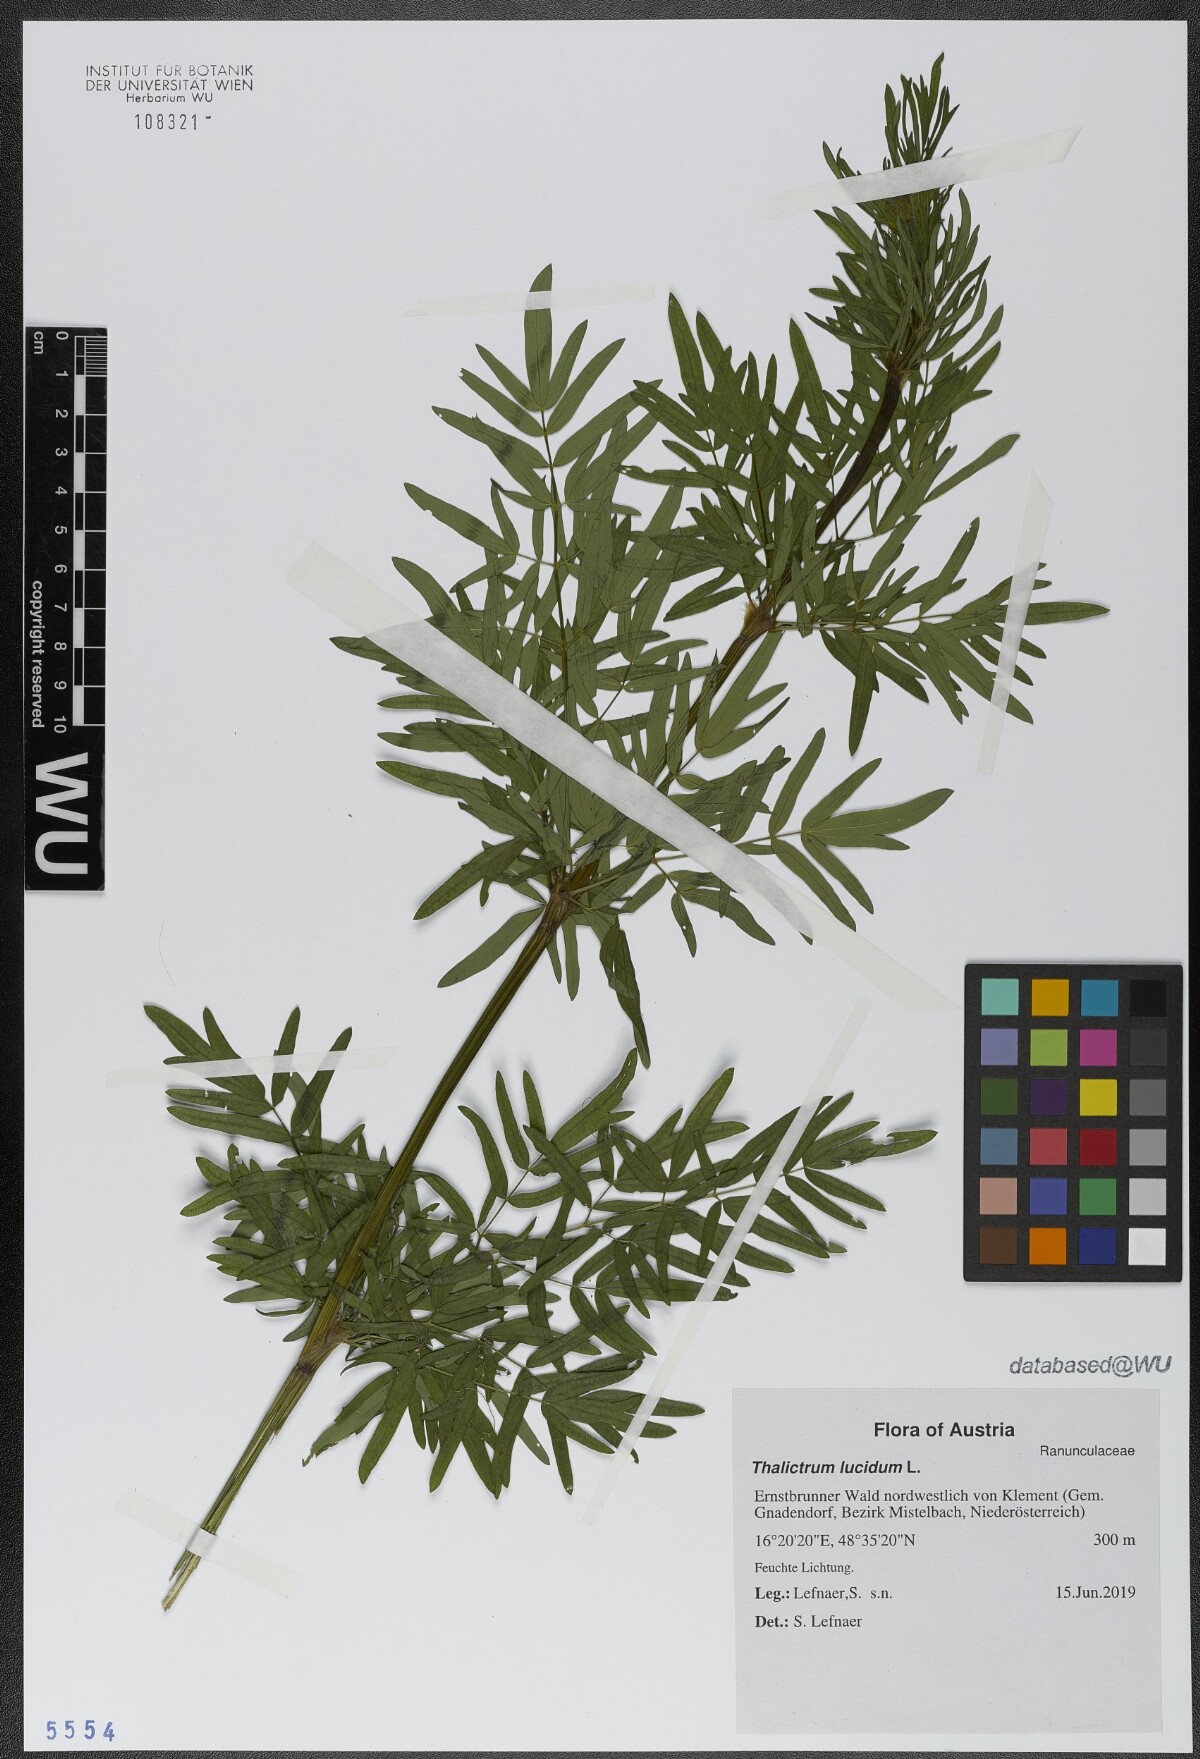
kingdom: Plantae
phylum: Tracheophyta
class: Magnoliopsida
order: Ranunculales
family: Ranunculaceae
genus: Thalictrum
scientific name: Thalictrum lucidum
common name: Shining meadow-rue
